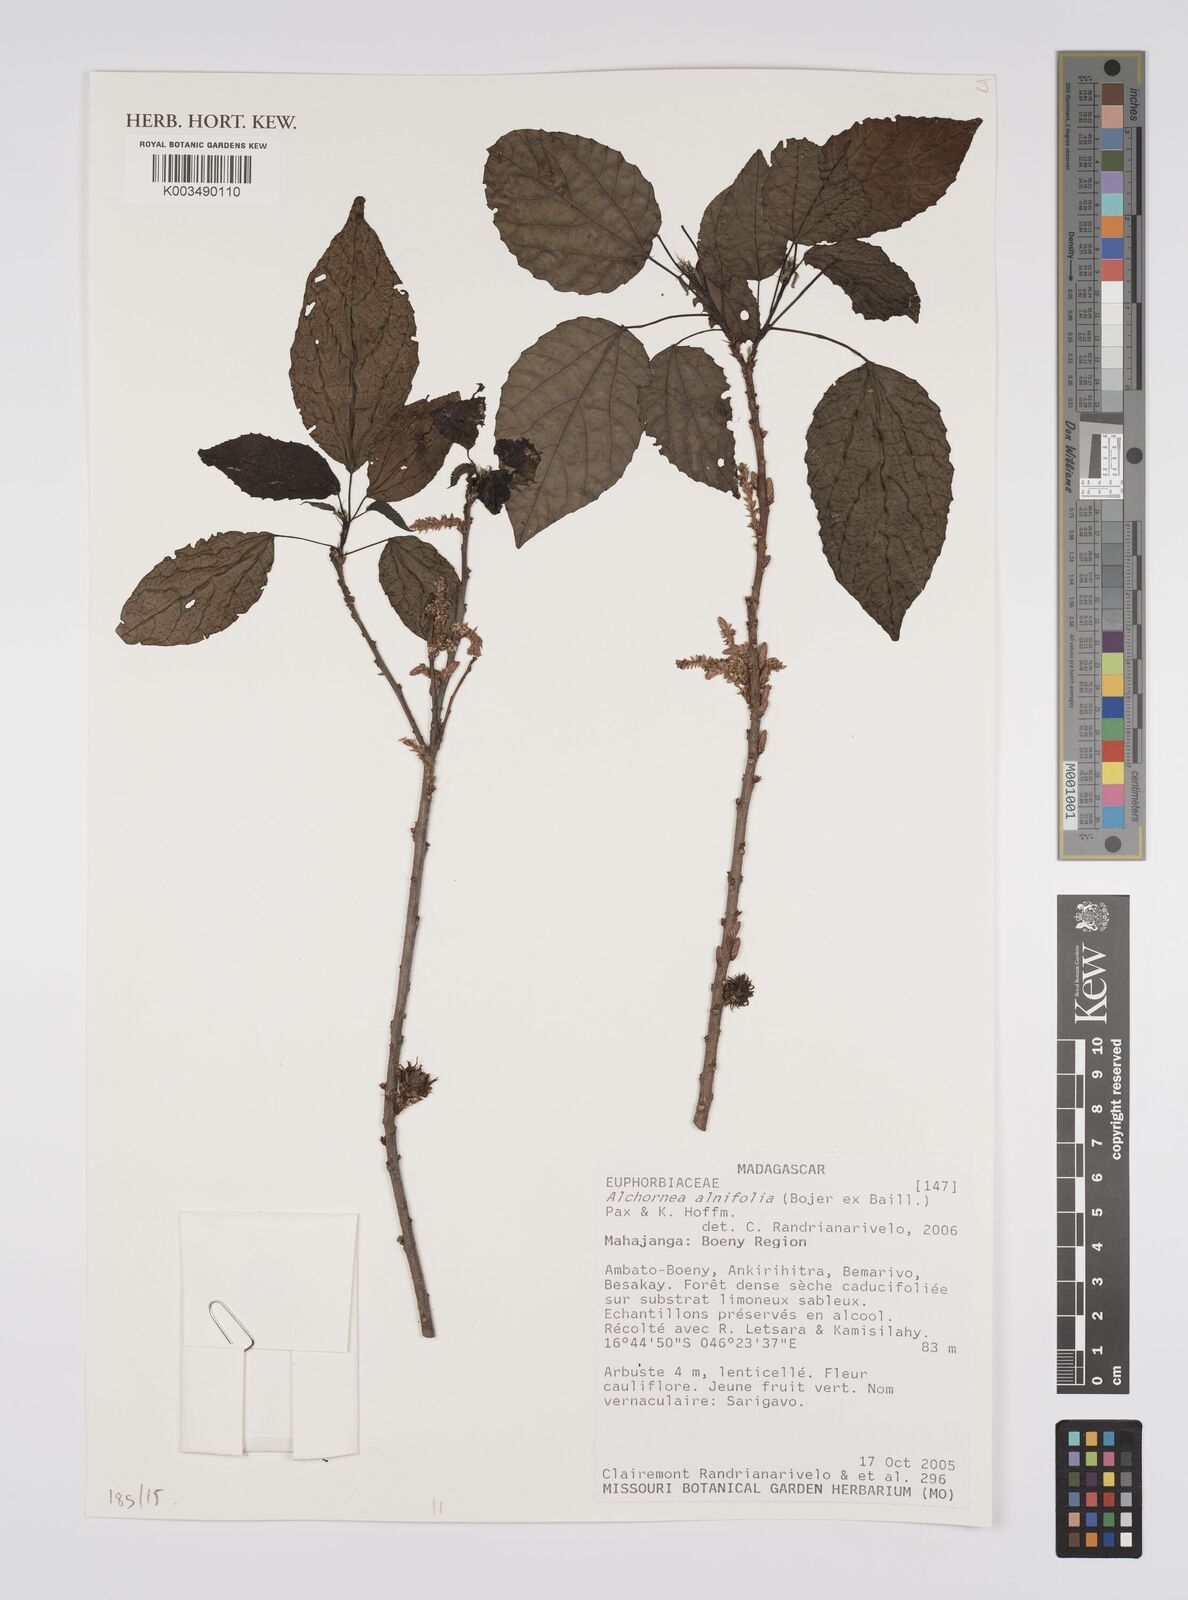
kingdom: Plantae
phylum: Tracheophyta
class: Magnoliopsida
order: Malpighiales
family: Euphorbiaceae
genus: Alchornea
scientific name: Alchornea alnifolia
